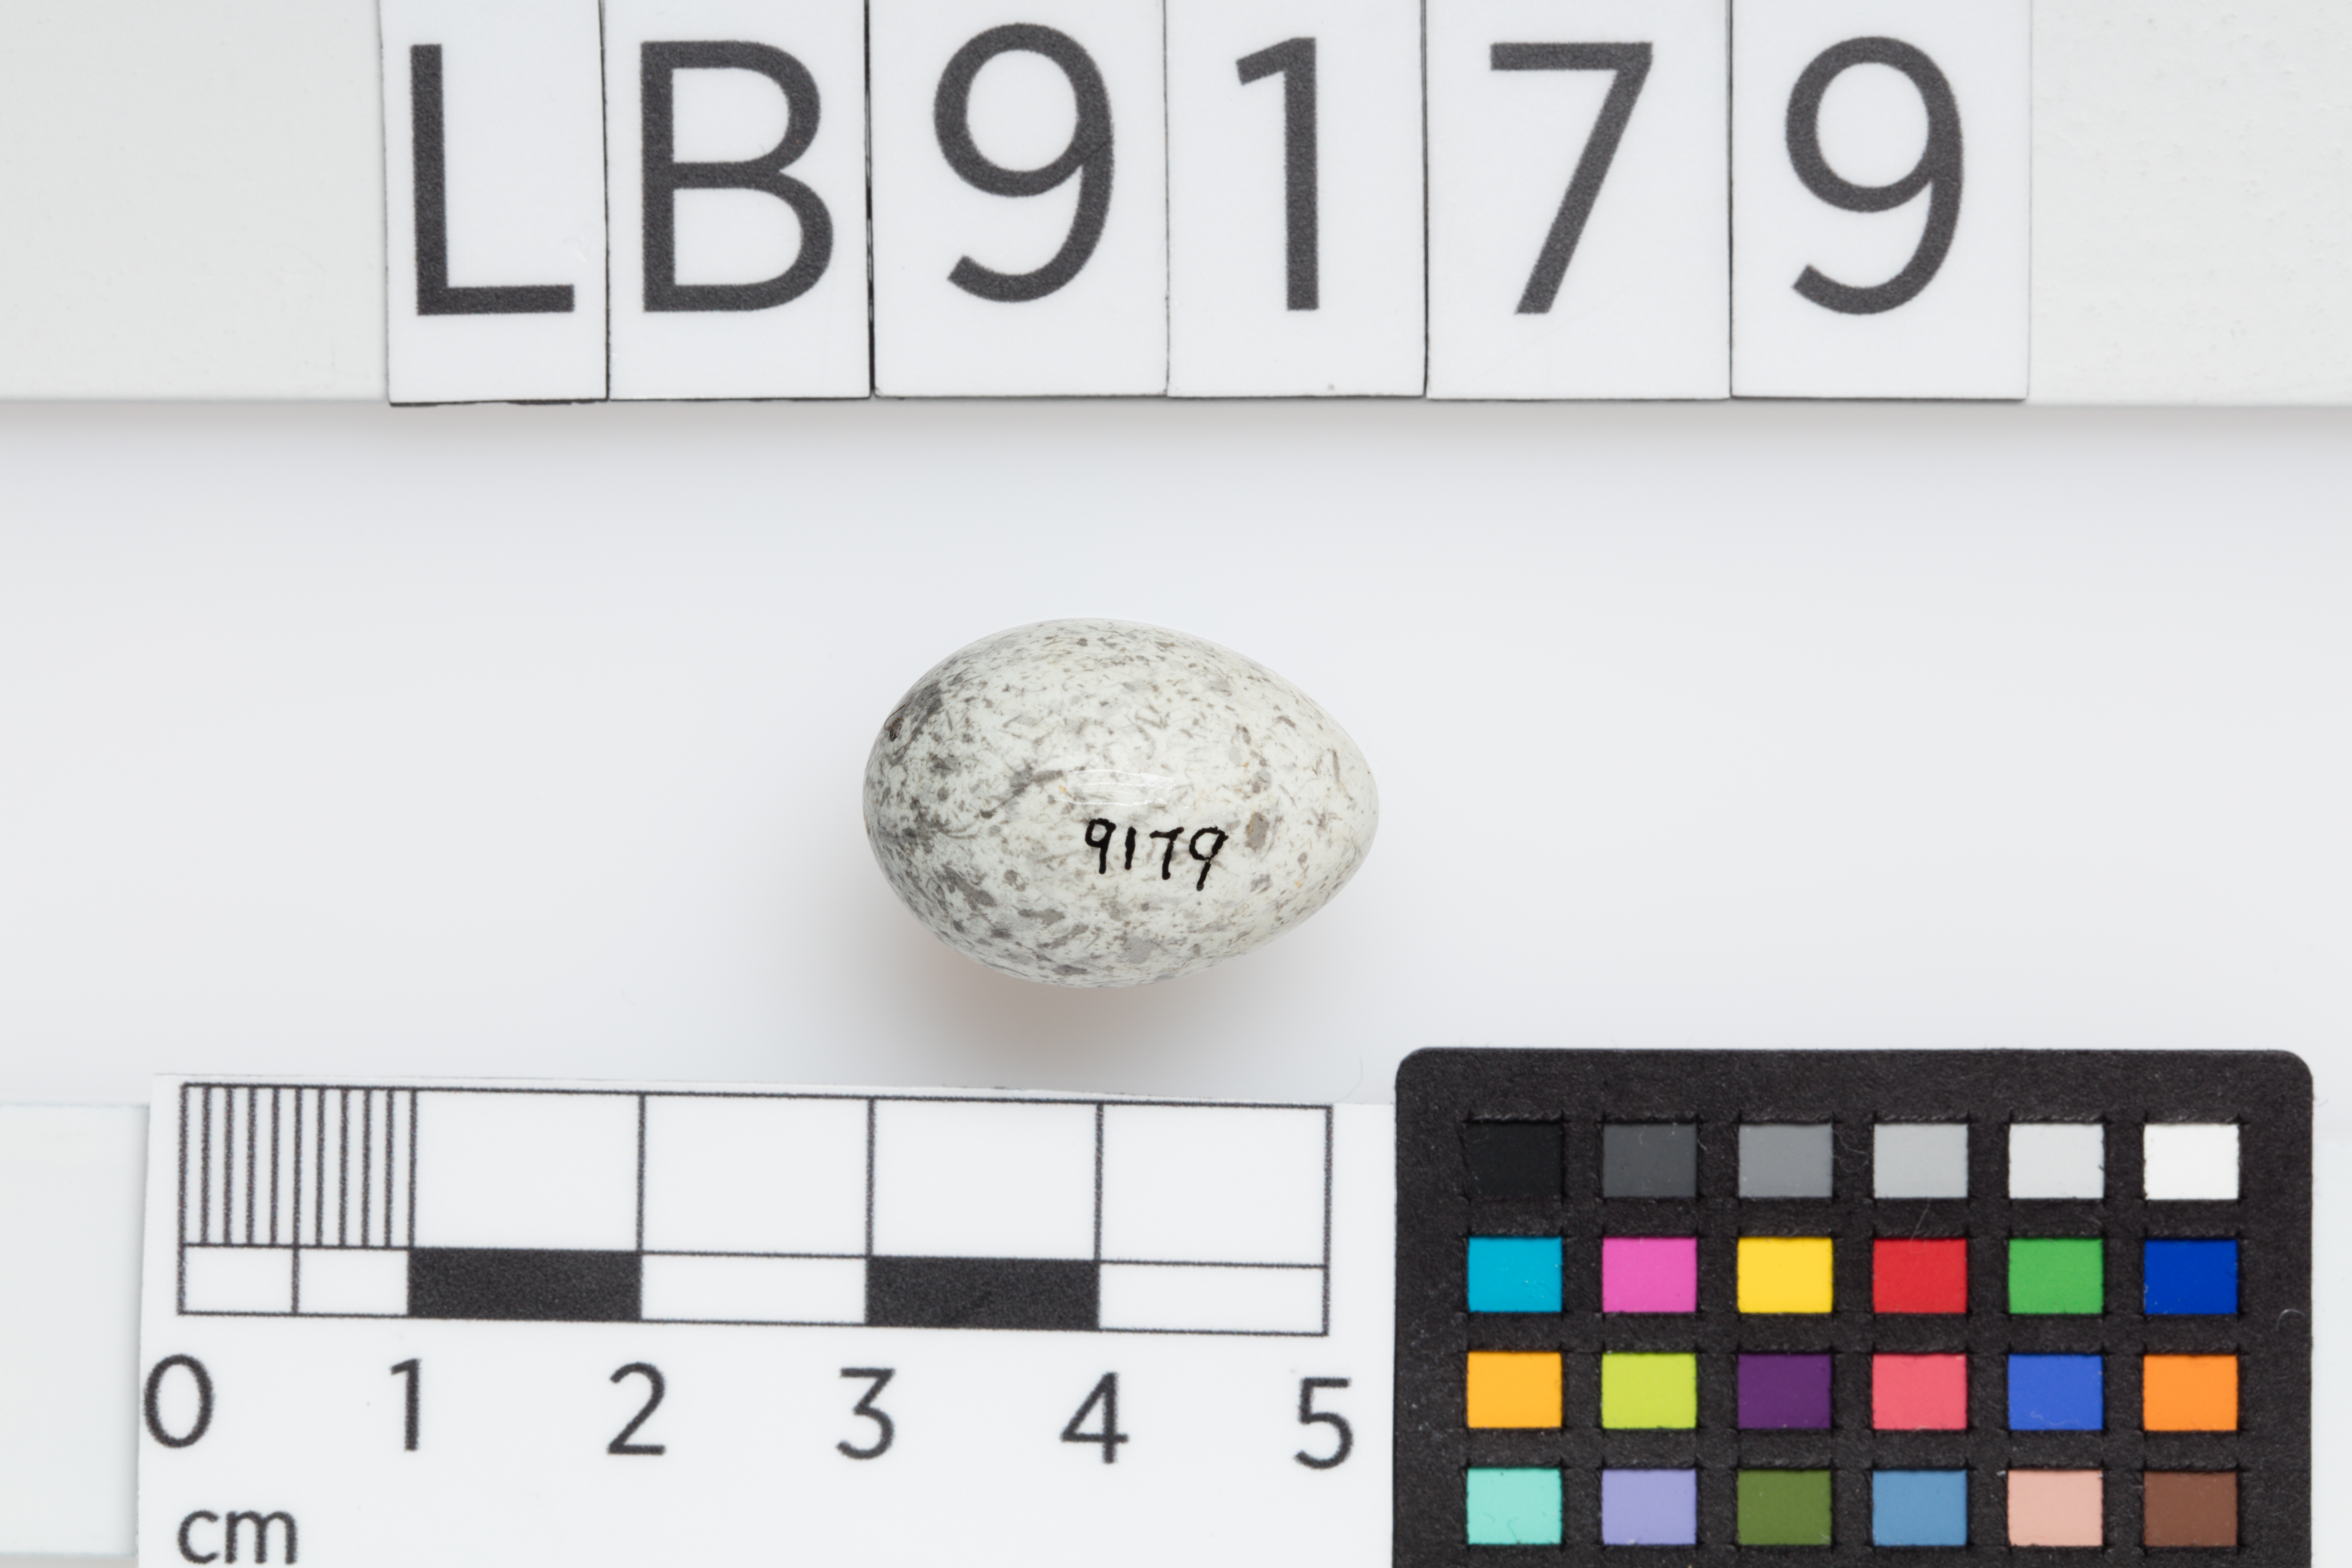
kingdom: Animalia
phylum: Chordata
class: Aves
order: Passeriformes
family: Passeridae
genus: Passer
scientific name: Passer domesticus
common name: House sparrow
